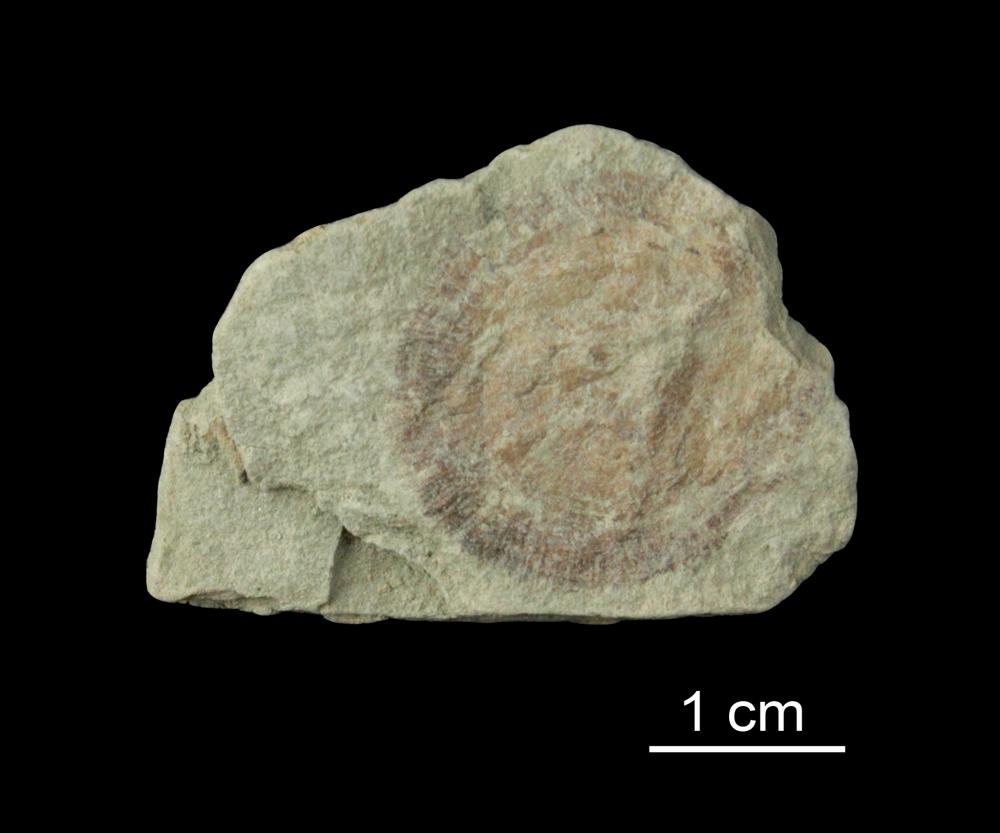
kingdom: Animalia
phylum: Mollusca
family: Scenellidae
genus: Scenella
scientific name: Scenella
